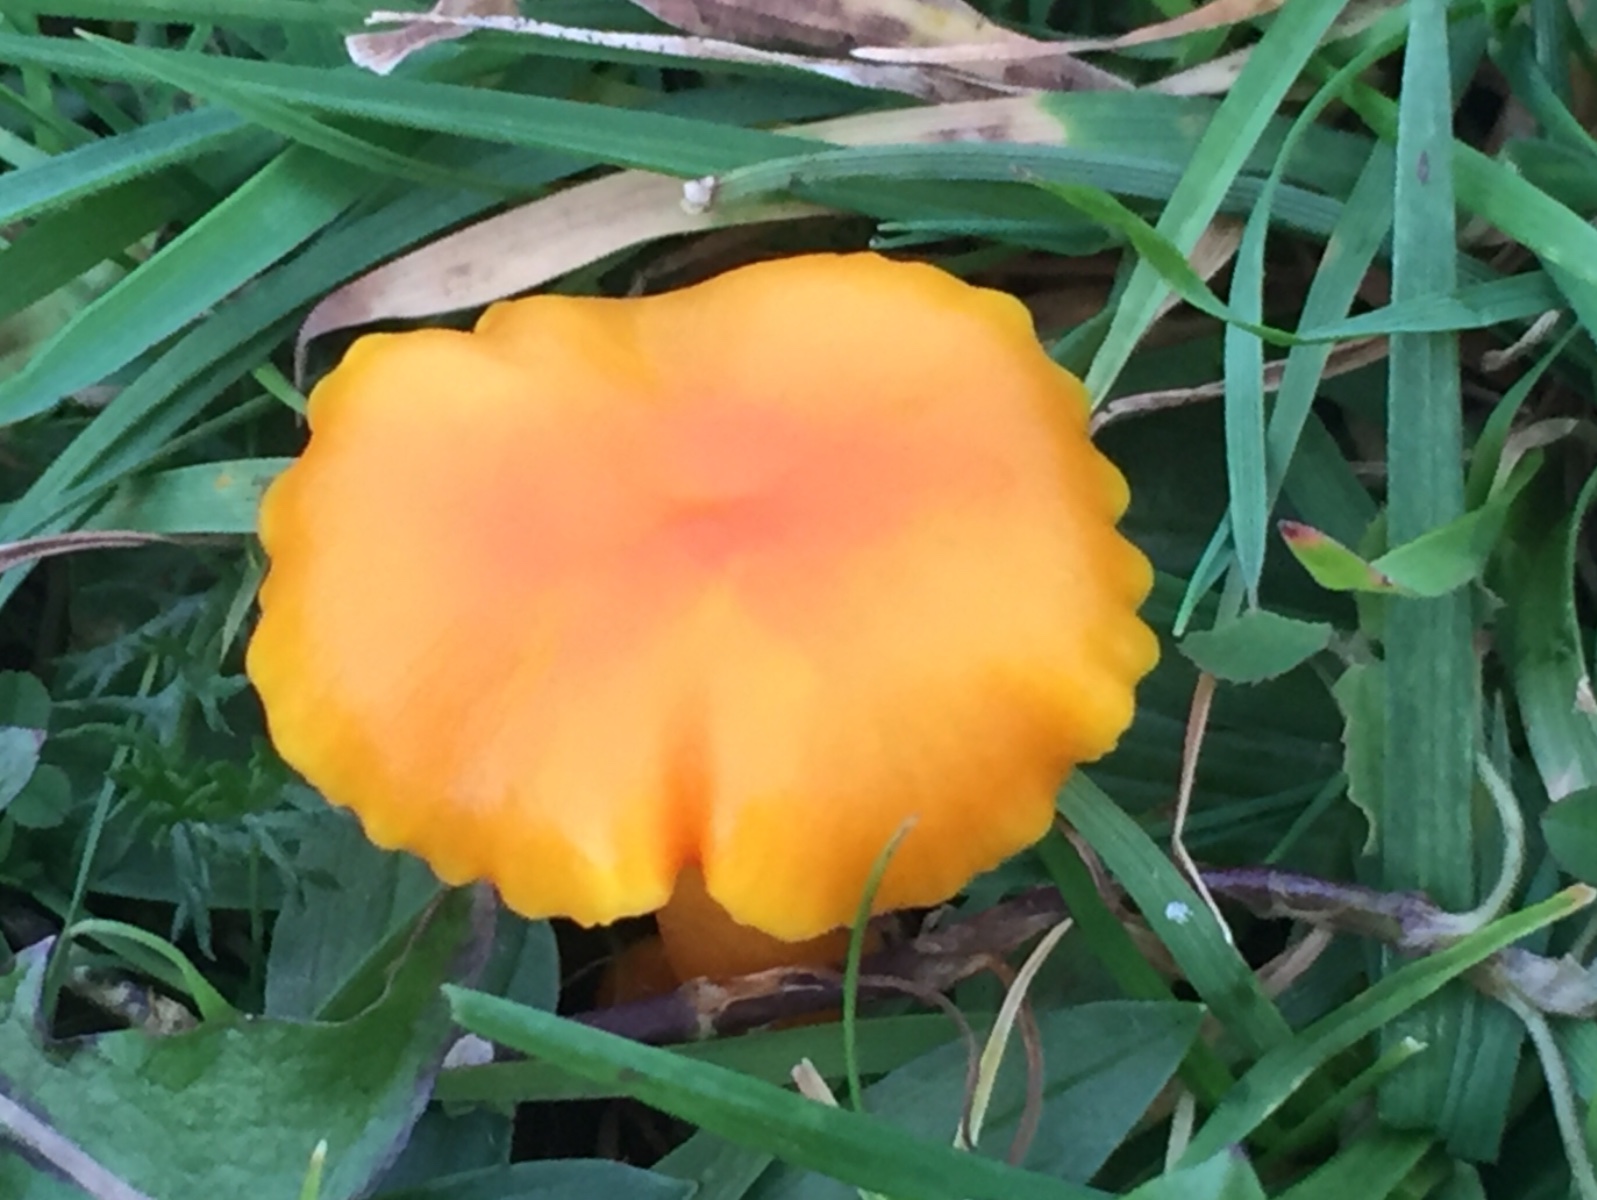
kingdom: Fungi
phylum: Basidiomycota
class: Agaricomycetes
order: Agaricales
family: Hygrophoraceae
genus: Hygrocybe
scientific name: Hygrocybe ceracea
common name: voksgul vokshat
